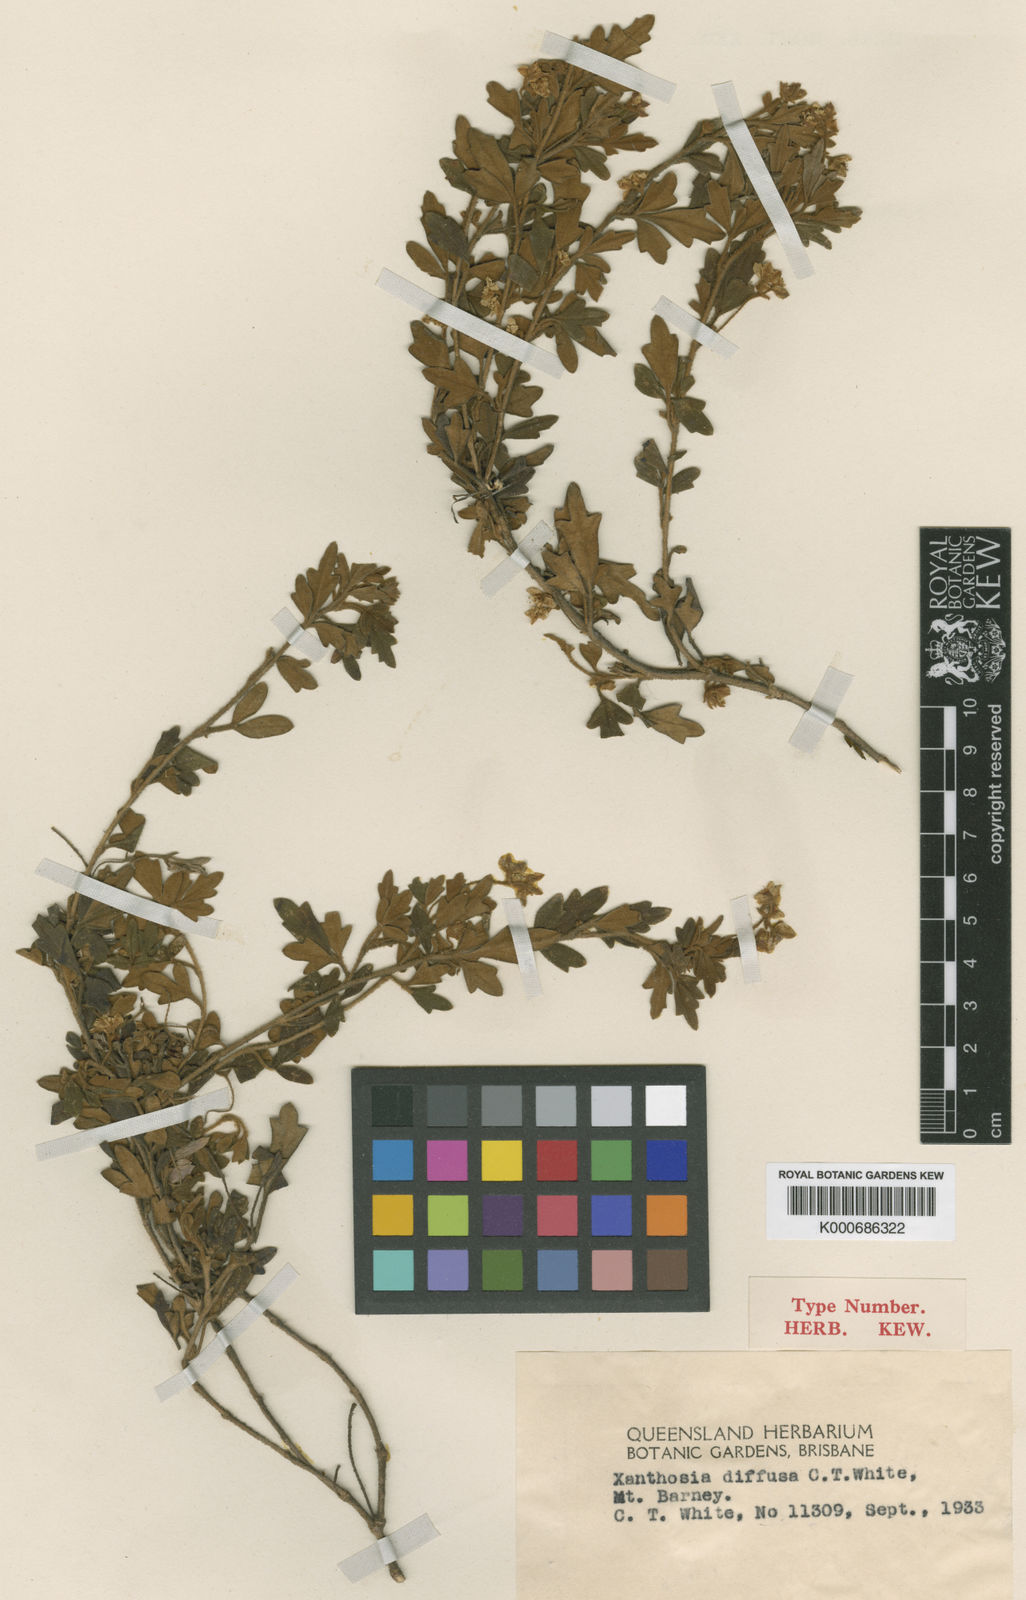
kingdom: Plantae
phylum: Tracheophyta
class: Magnoliopsida
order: Apiales
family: Apiaceae
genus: Xanthosia
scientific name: Xanthosia pilosa
